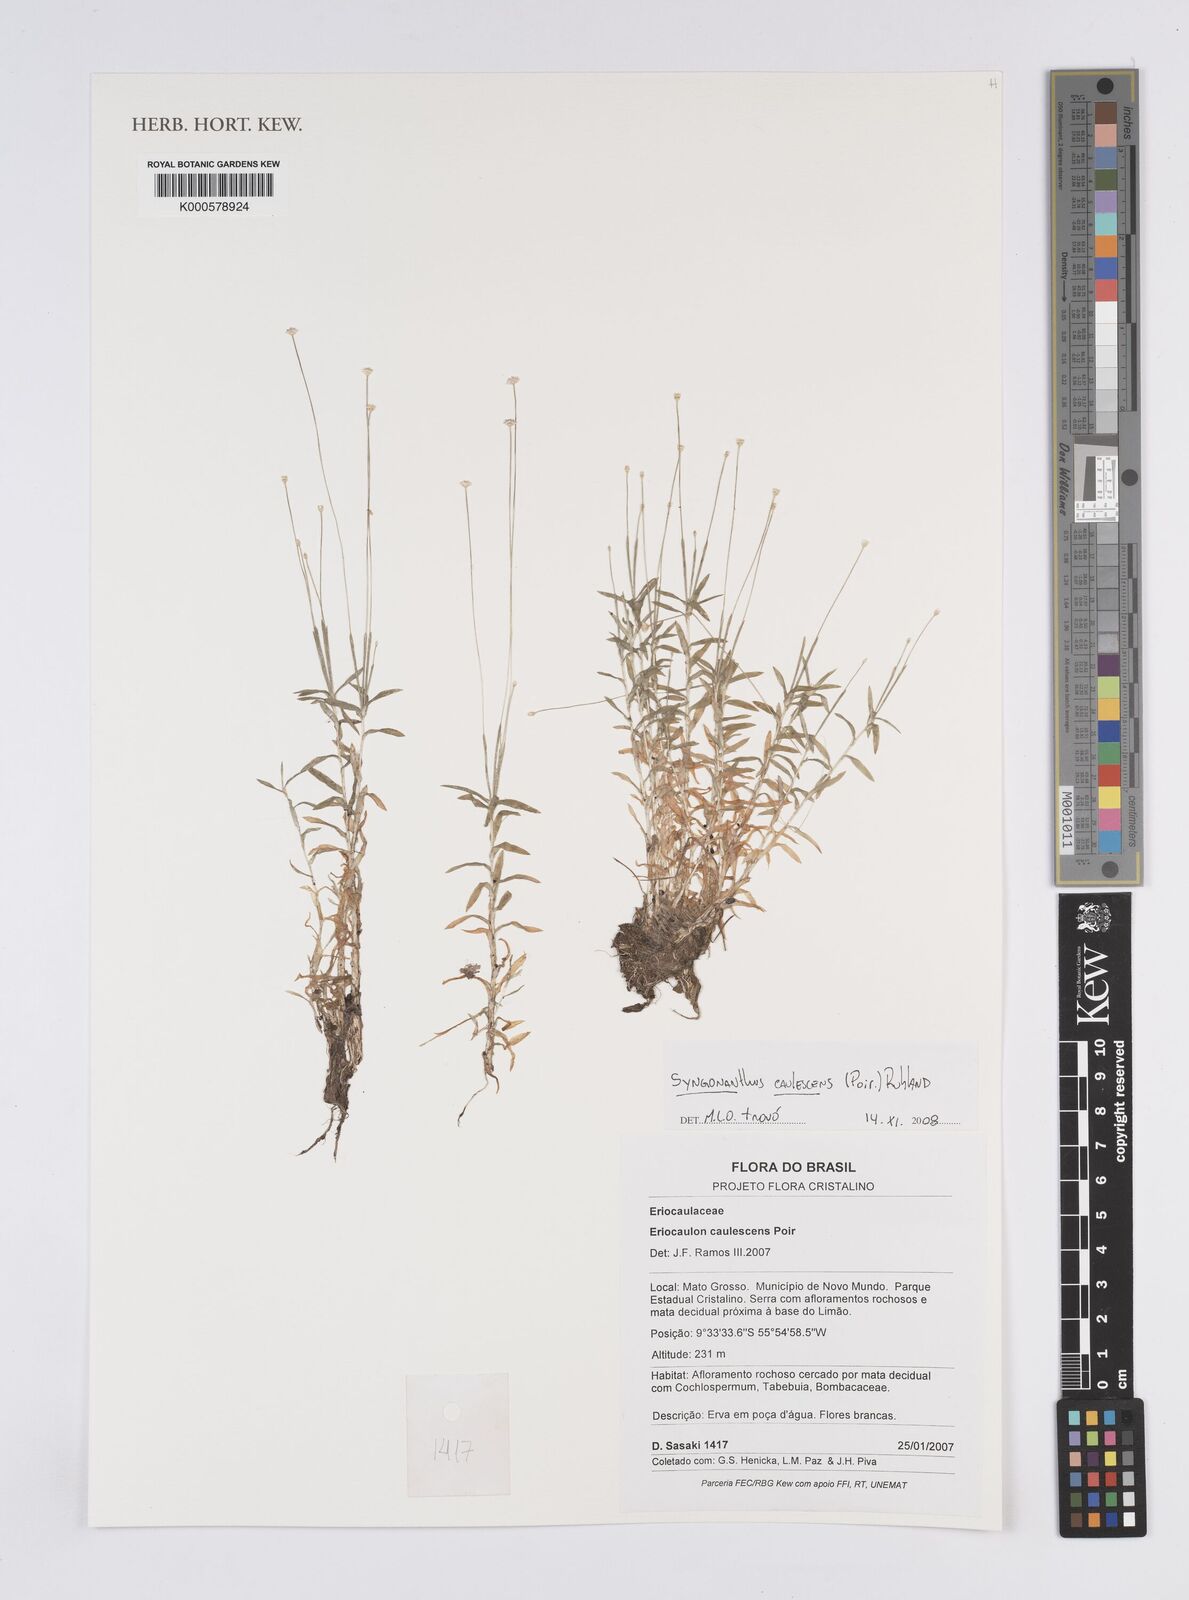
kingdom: Plantae
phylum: Tracheophyta
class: Liliopsida
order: Poales
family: Eriocaulaceae
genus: Syngonanthus
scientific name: Syngonanthus caulescens
